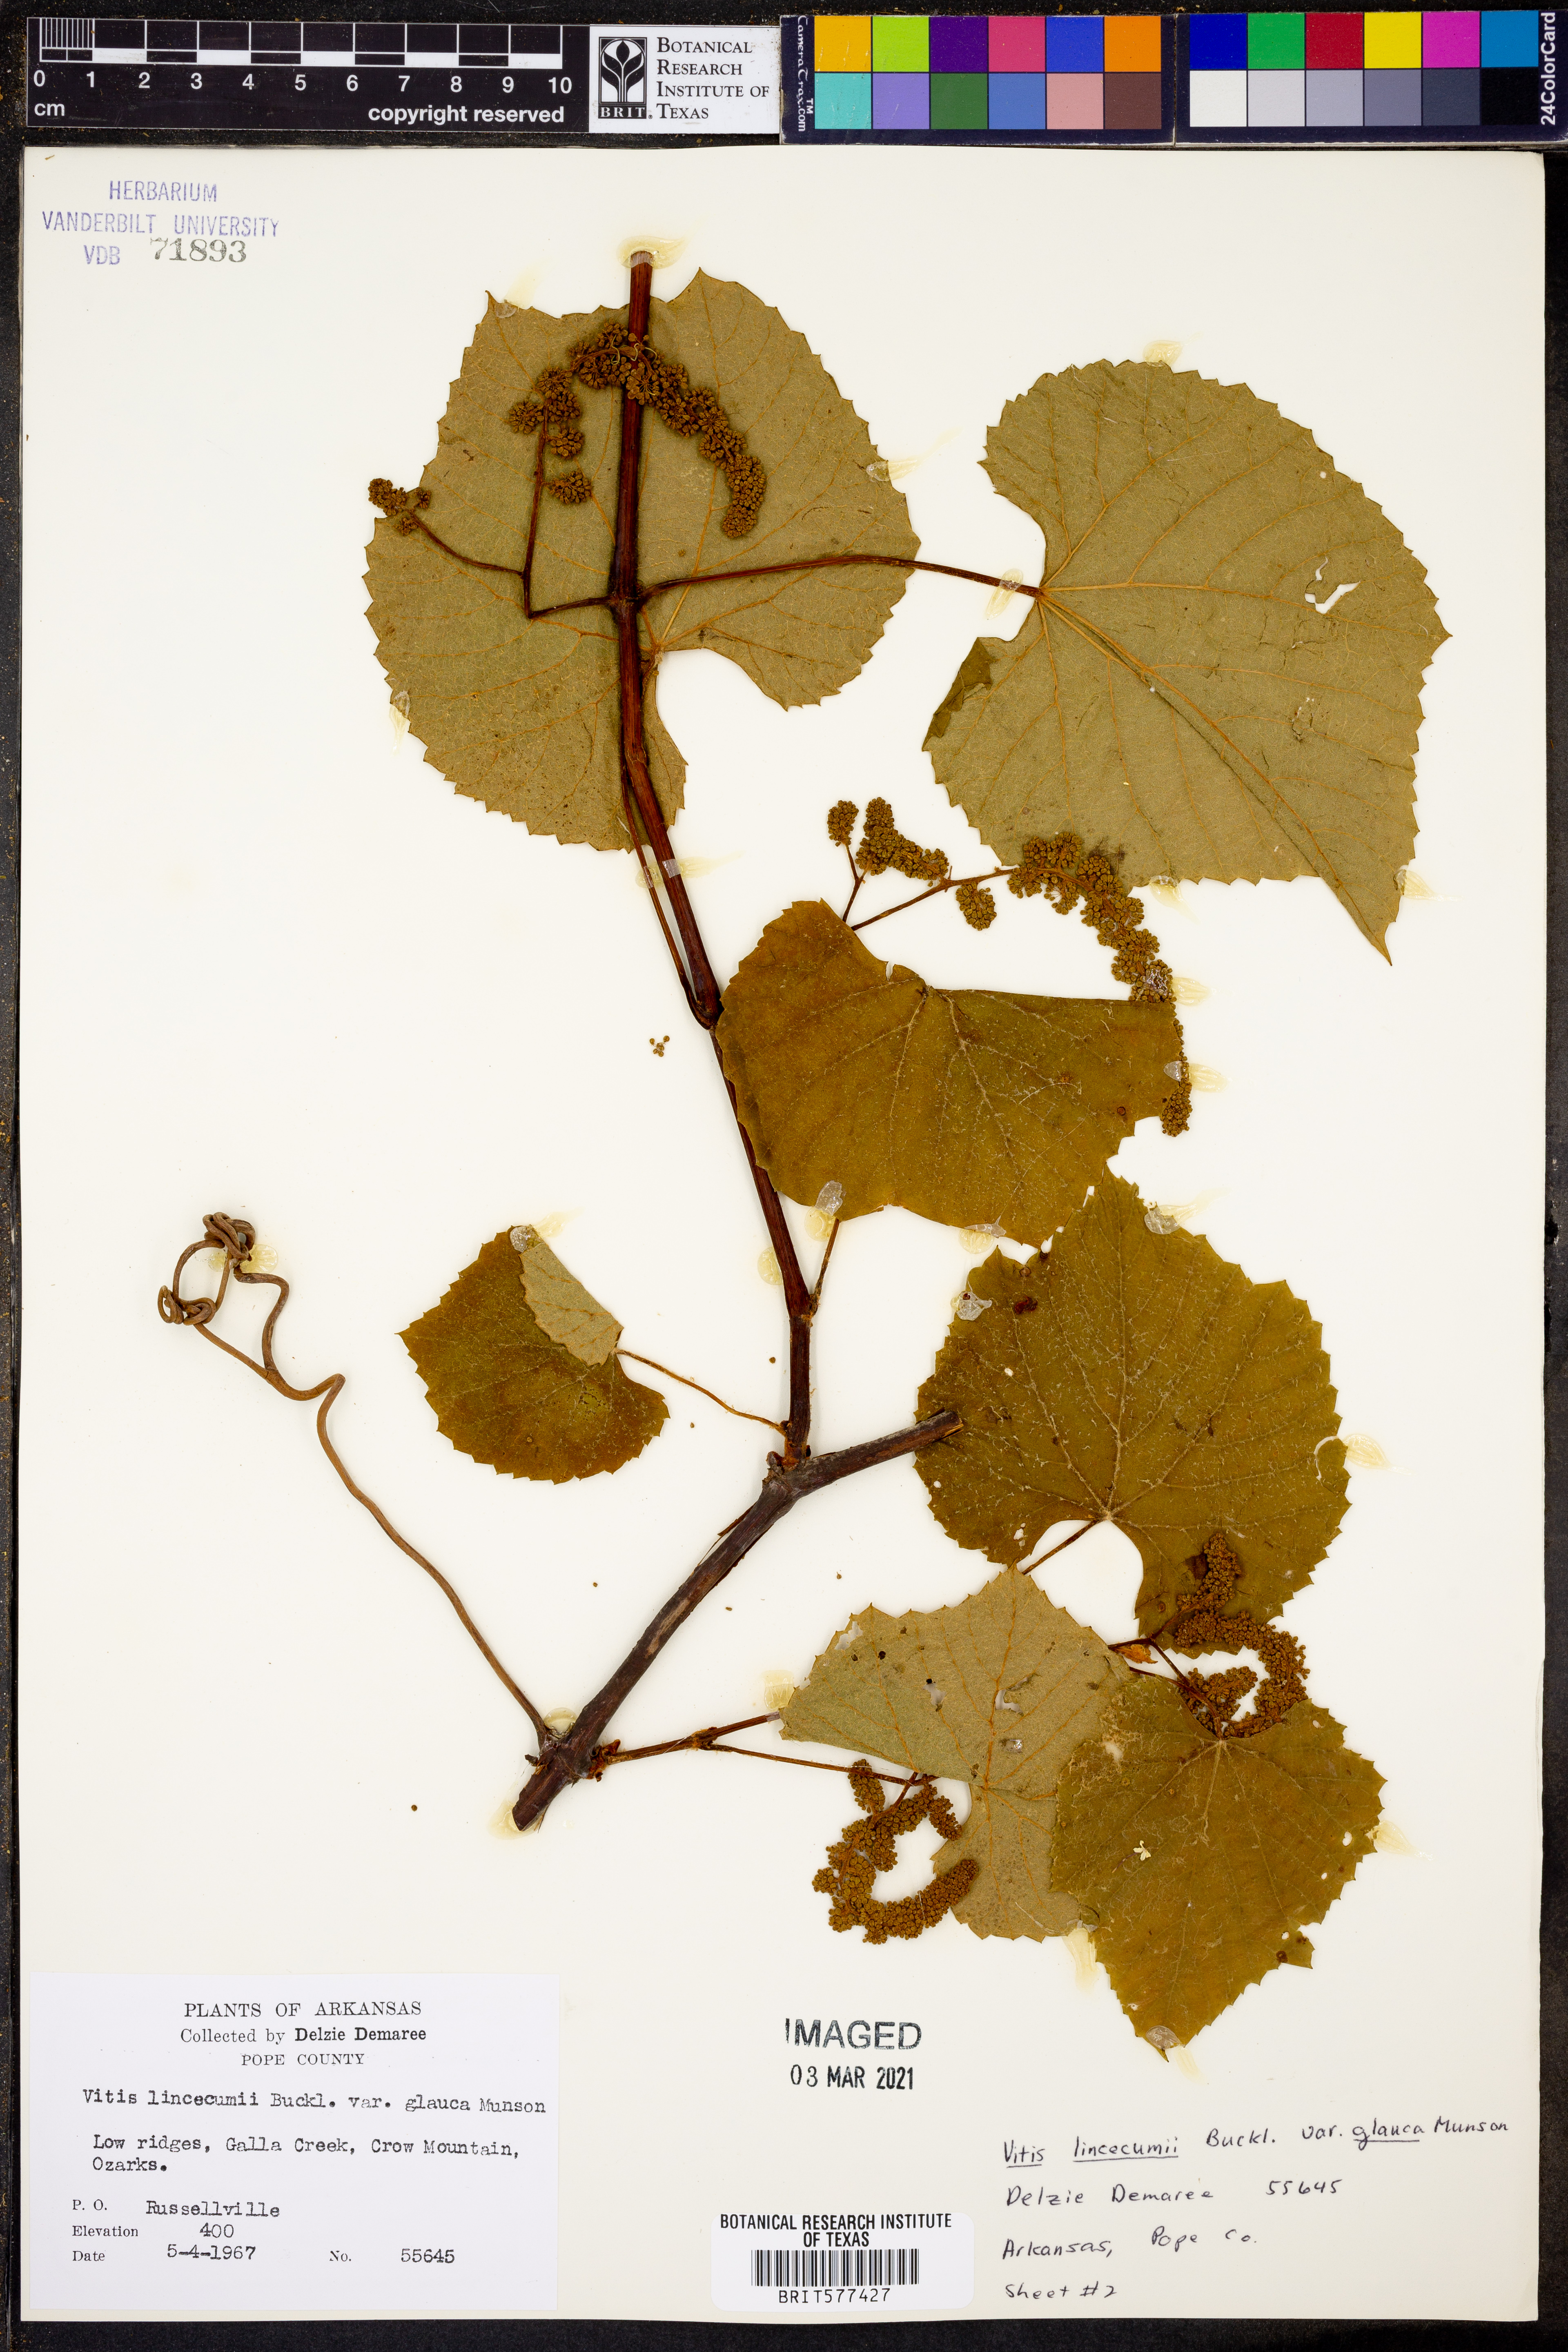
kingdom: Plantae
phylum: Tracheophyta
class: Magnoliopsida
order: Vitales
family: Vitaceae
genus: Vitis
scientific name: Vitis aestivalis
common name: Pigeon grape
